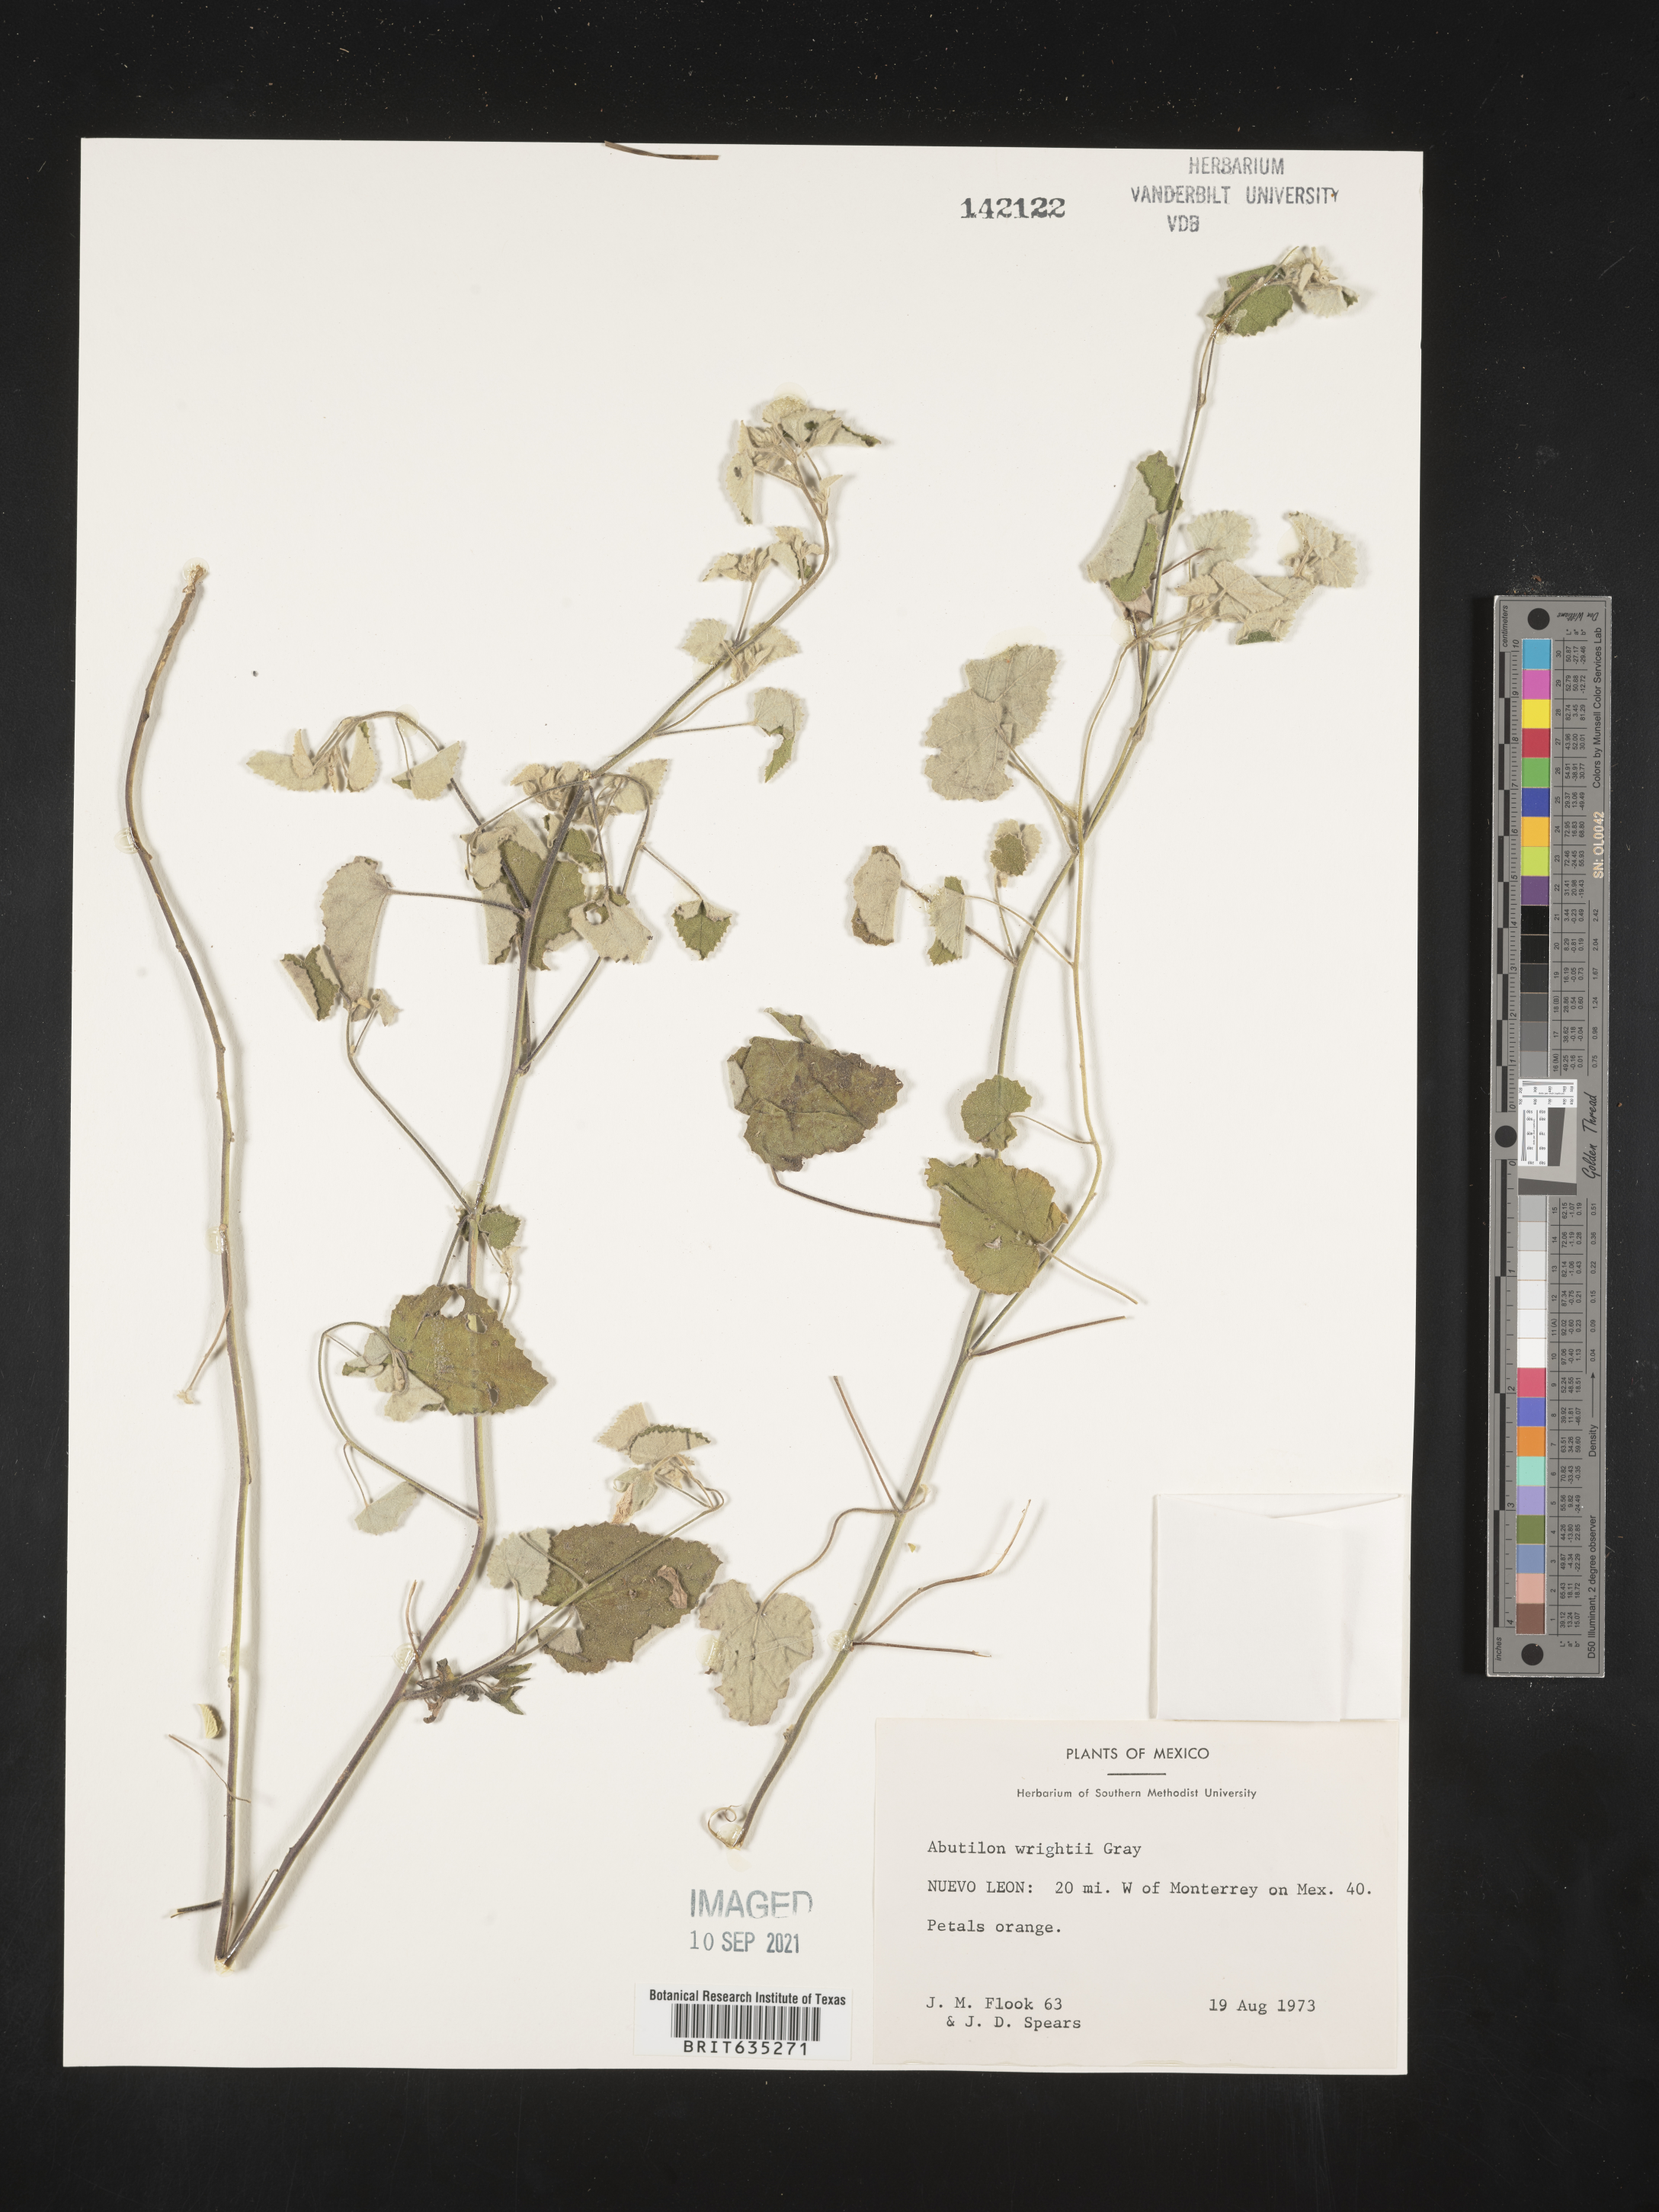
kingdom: Plantae
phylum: Tracheophyta
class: Magnoliopsida
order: Malvales
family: Malvaceae
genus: Abutilon
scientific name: Abutilon
